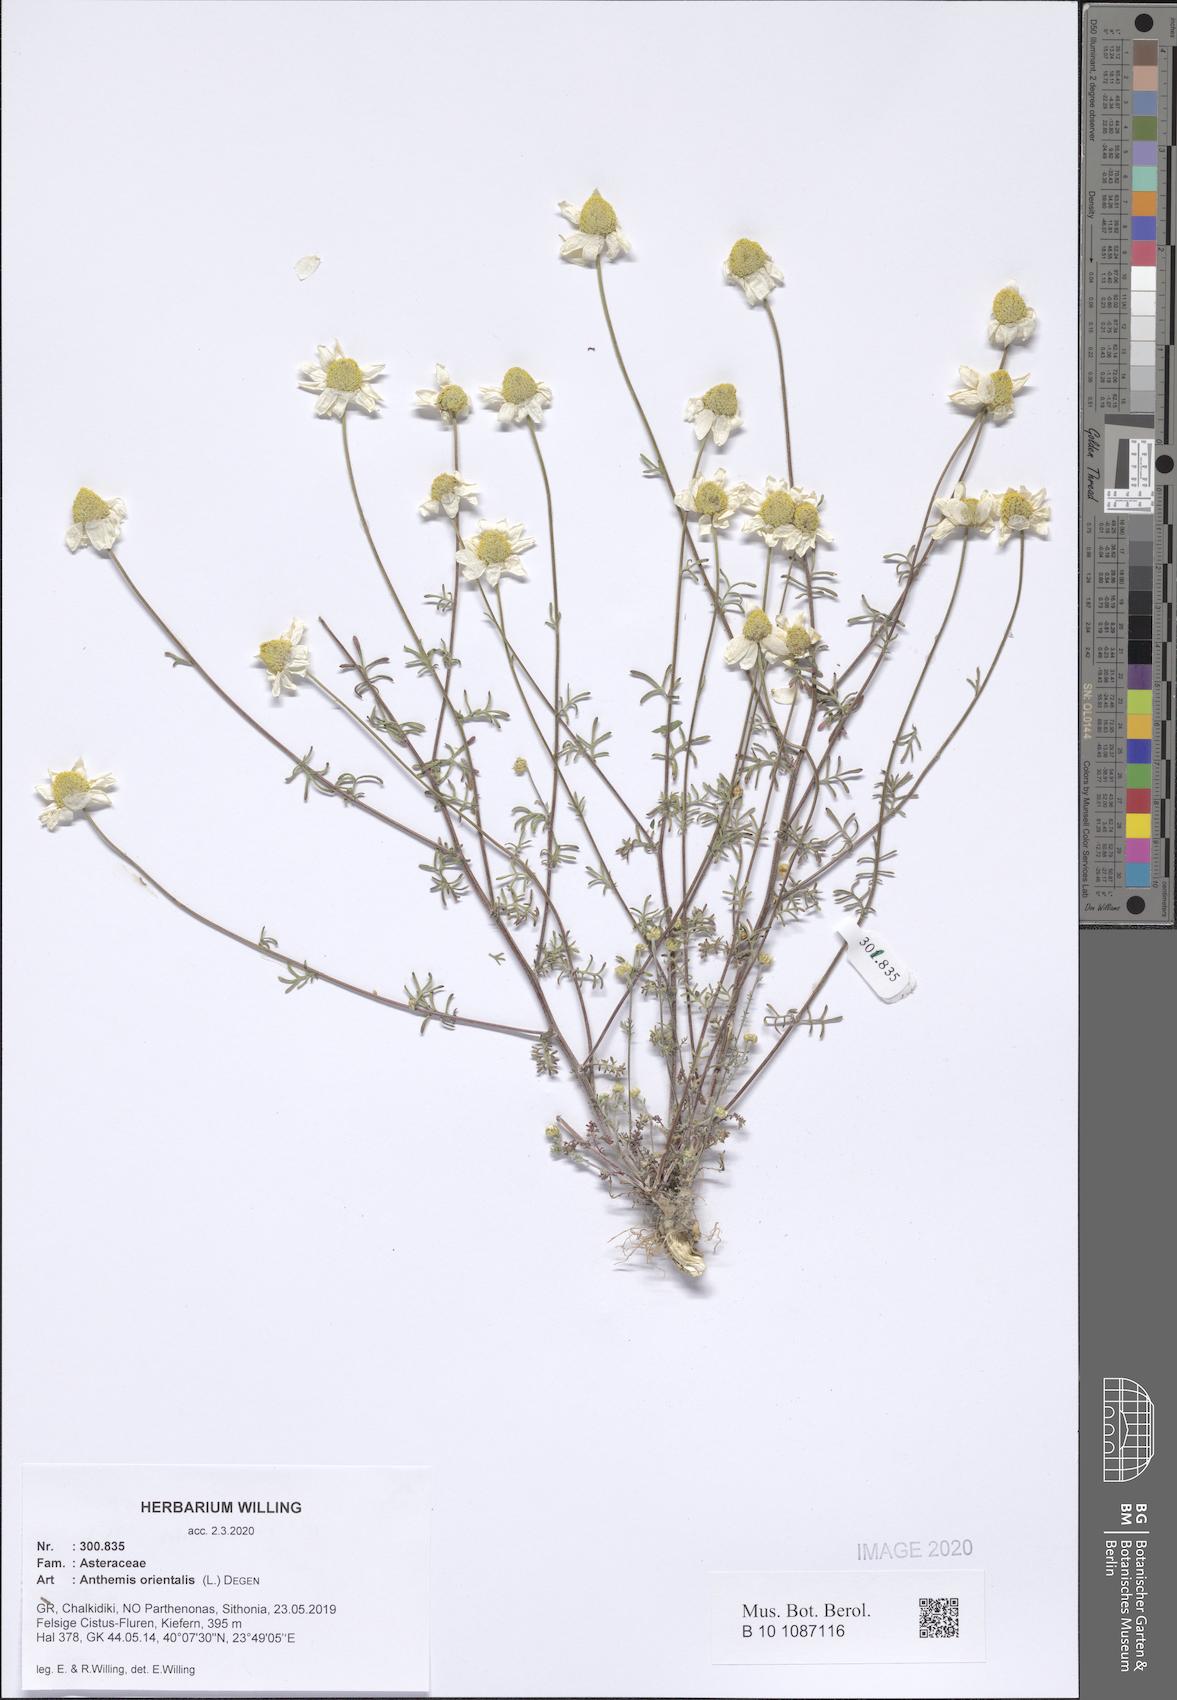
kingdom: Plantae
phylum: Tracheophyta
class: Magnoliopsida
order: Asterales
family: Asteraceae
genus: Anthemis
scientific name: Anthemis
